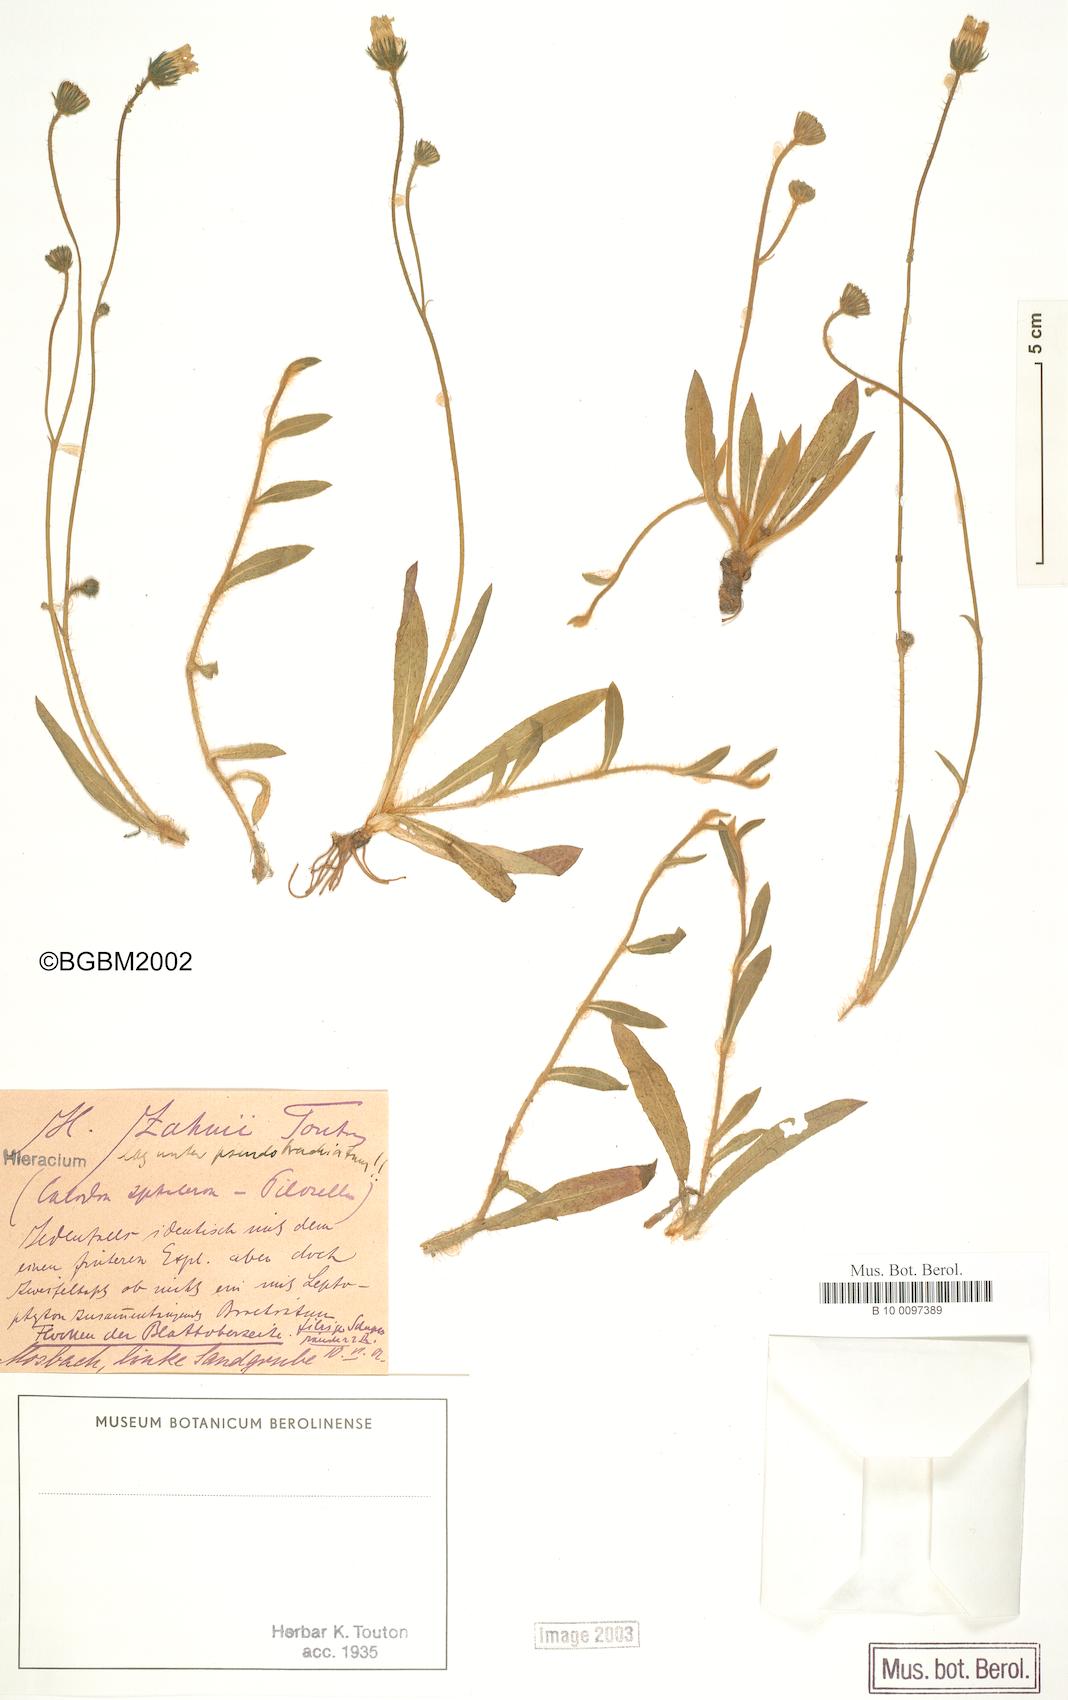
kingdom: Plantae
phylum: Tracheophyta
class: Magnoliopsida
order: Asterales
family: Asteraceae
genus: Pilosella
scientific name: Pilosella heterodoxiformis
